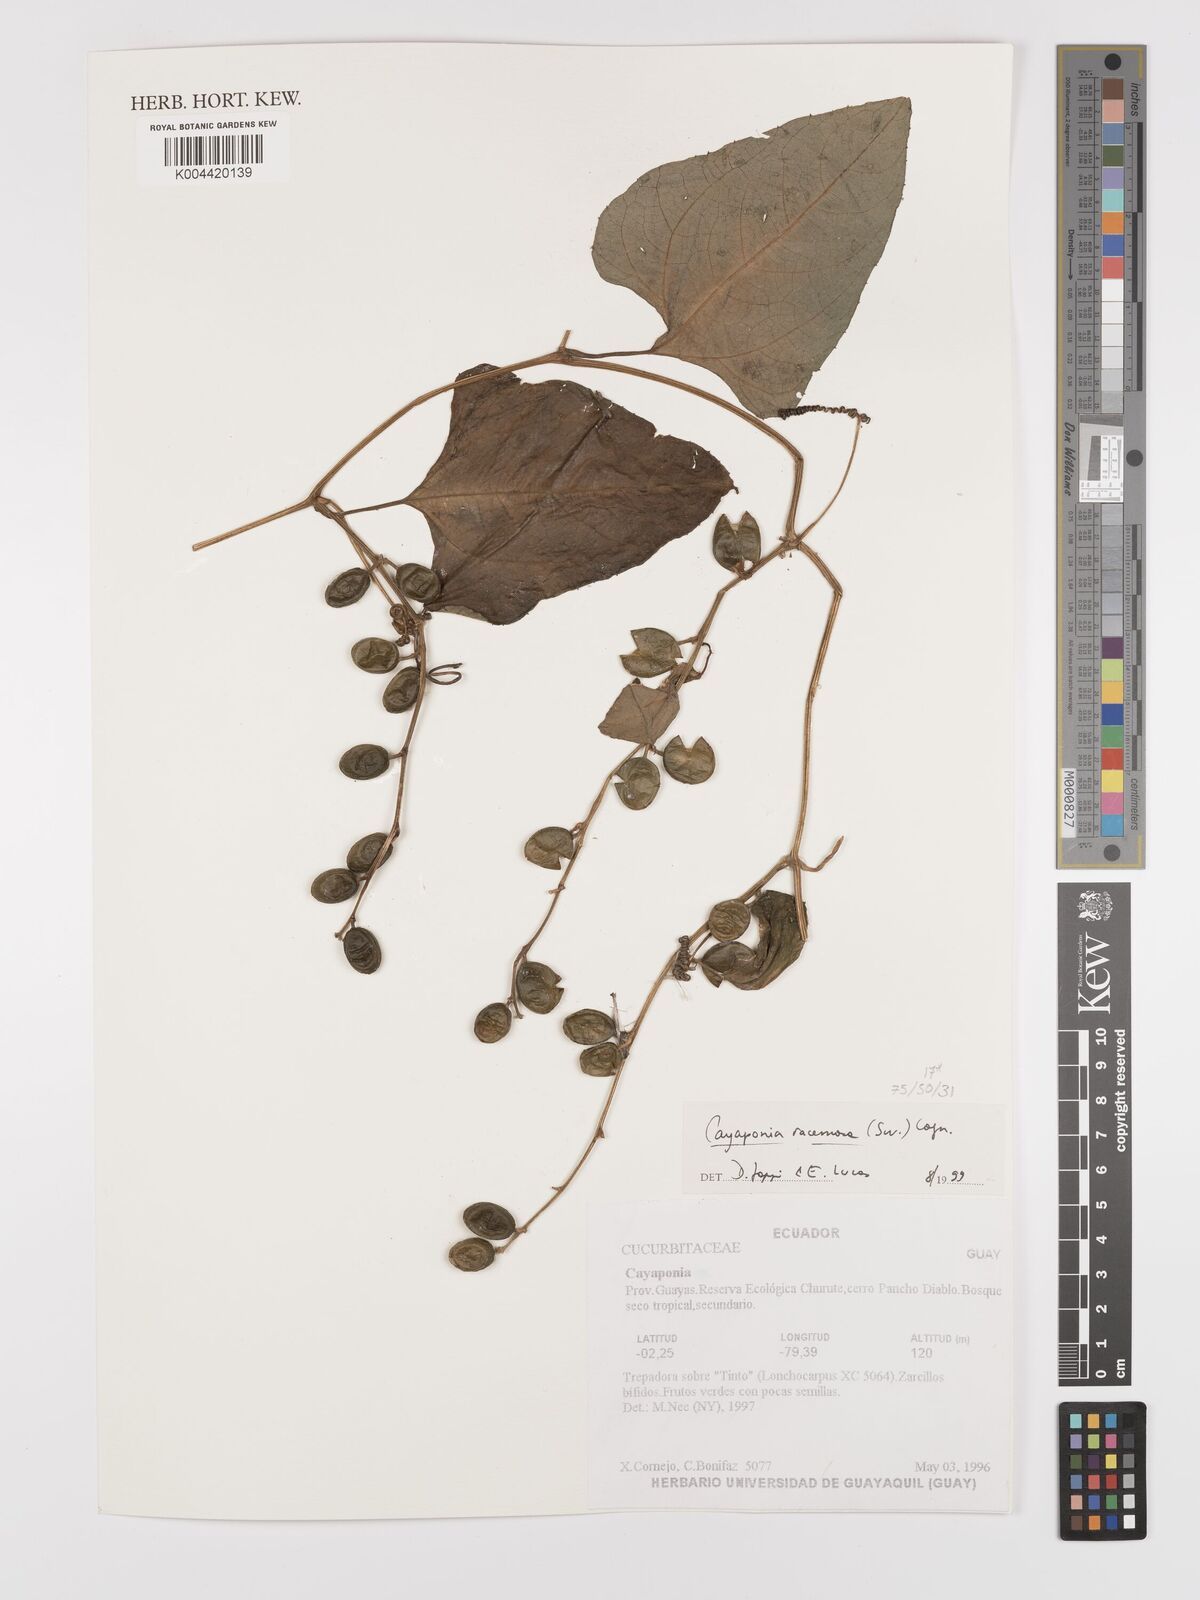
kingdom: Plantae
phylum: Tracheophyta
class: Magnoliopsida
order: Cucurbitales
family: Cucurbitaceae
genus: Cayaponia
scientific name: Cayaponia racemosa
